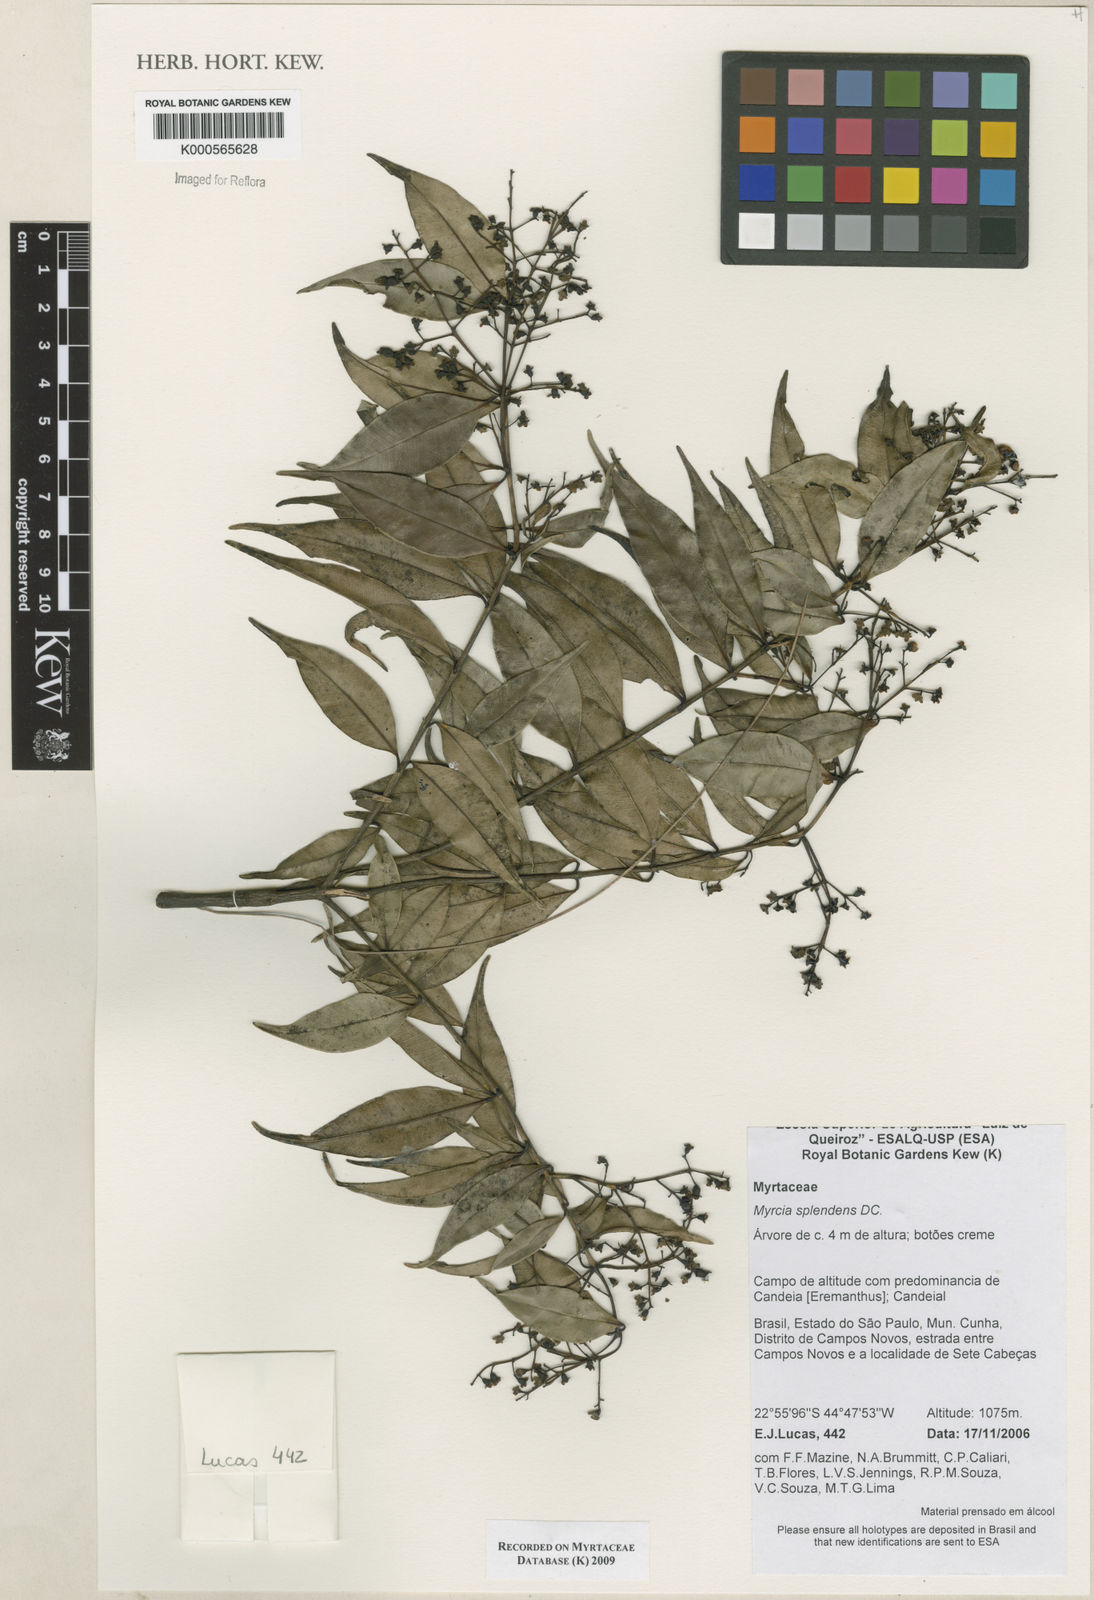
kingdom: Plantae
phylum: Tracheophyta
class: Magnoliopsida
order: Myrtales
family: Myrtaceae
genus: Myrcia
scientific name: Myrcia splendens
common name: Surinam cherry
